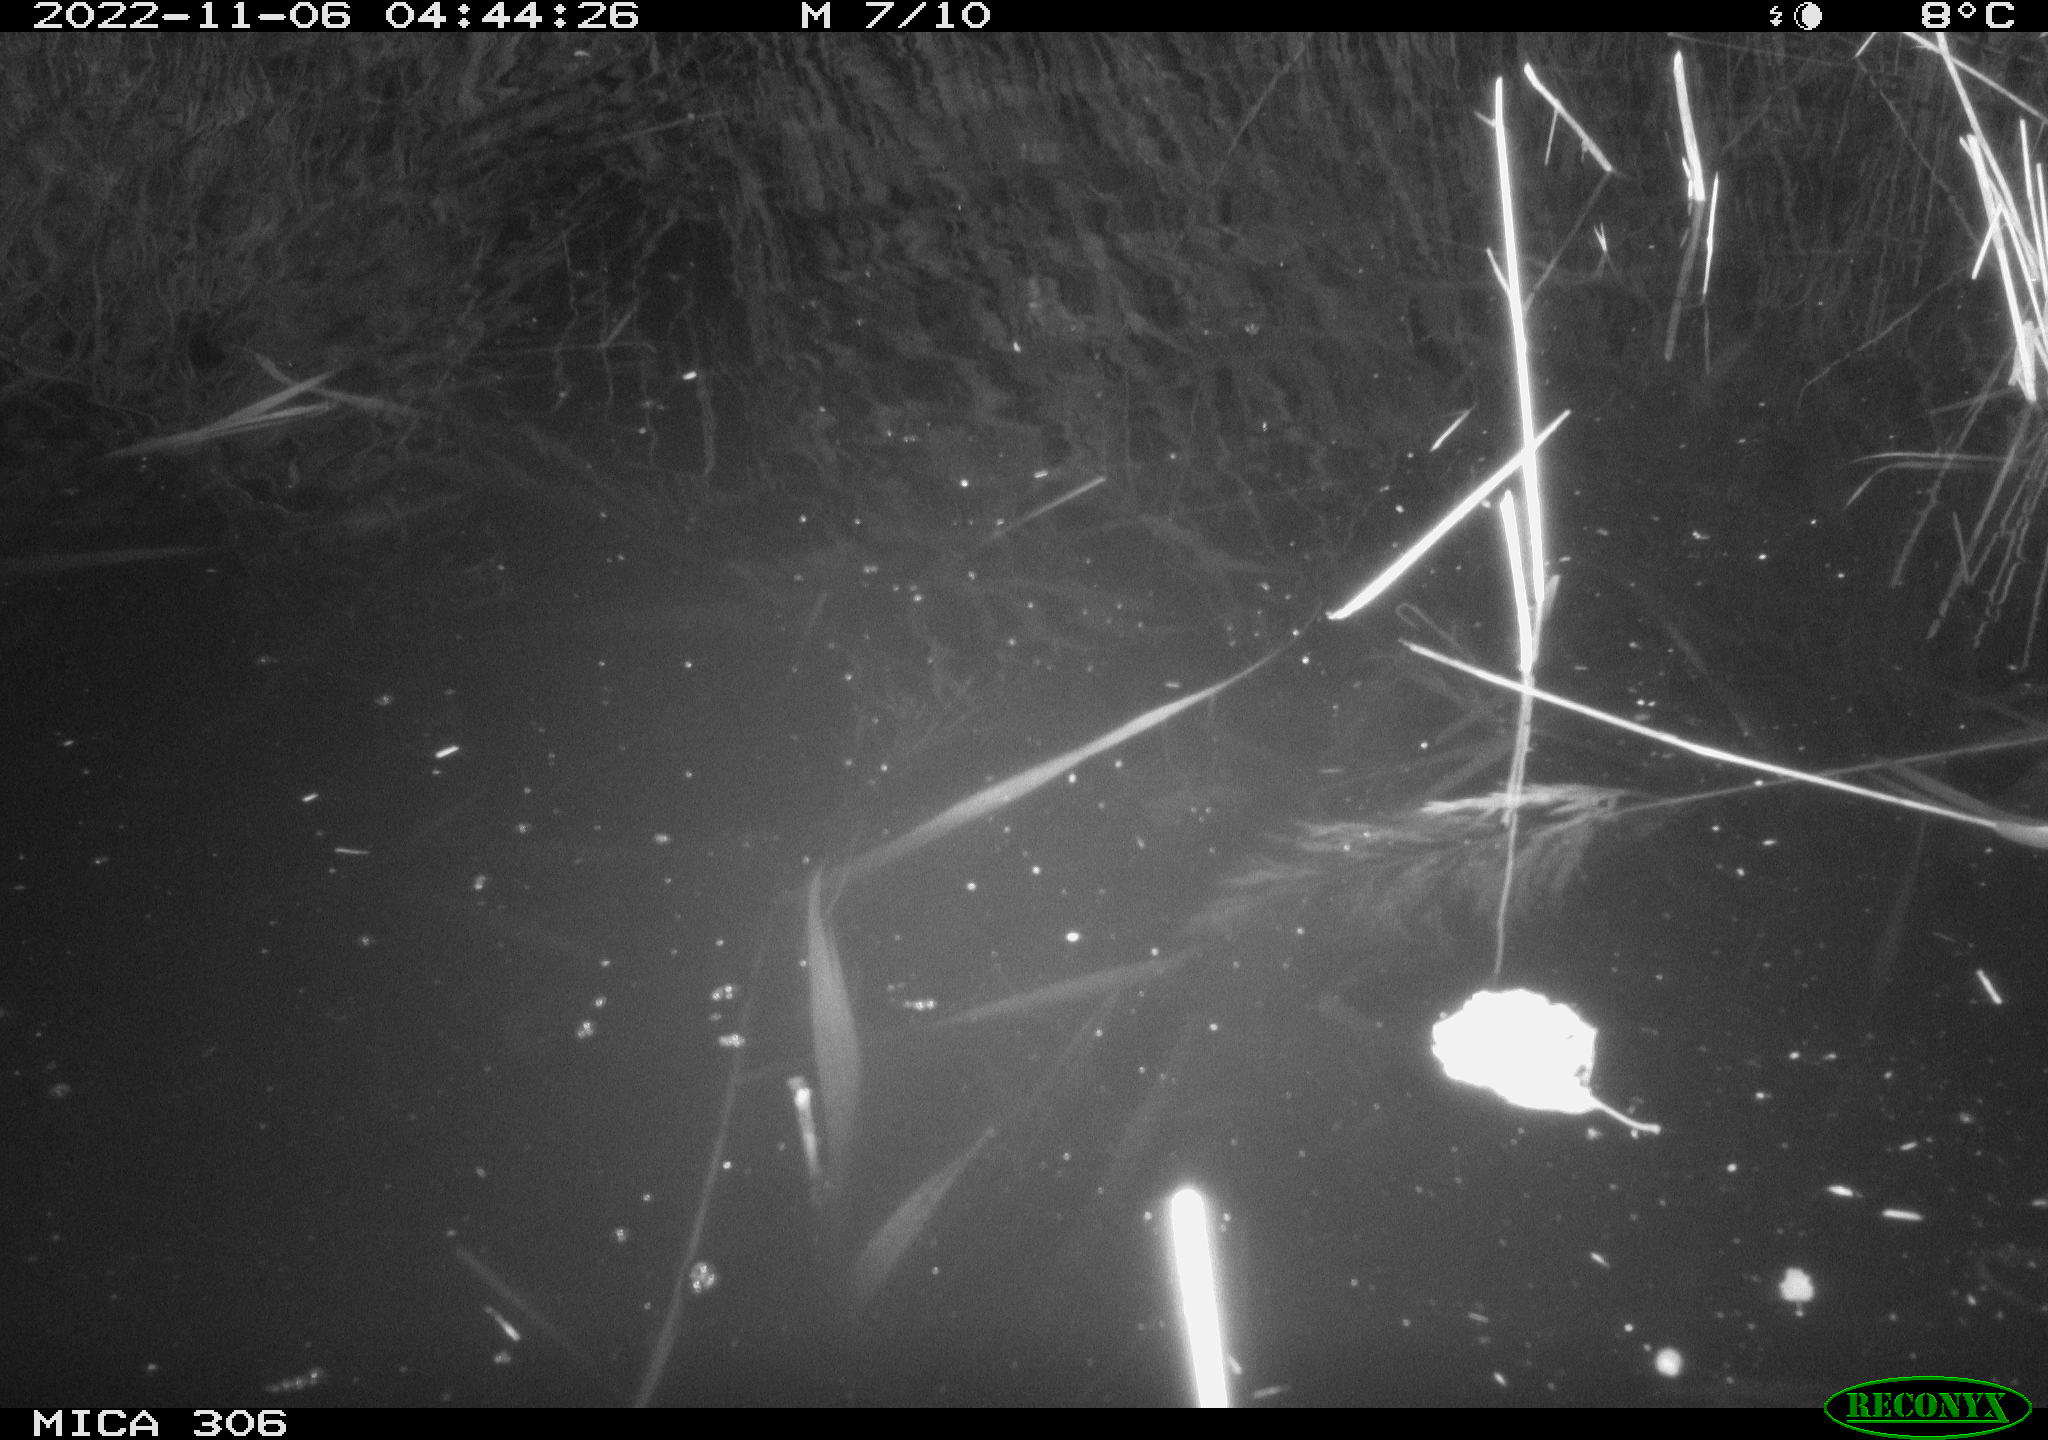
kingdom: Animalia
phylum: Chordata
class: Mammalia
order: Rodentia
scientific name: Rodentia
